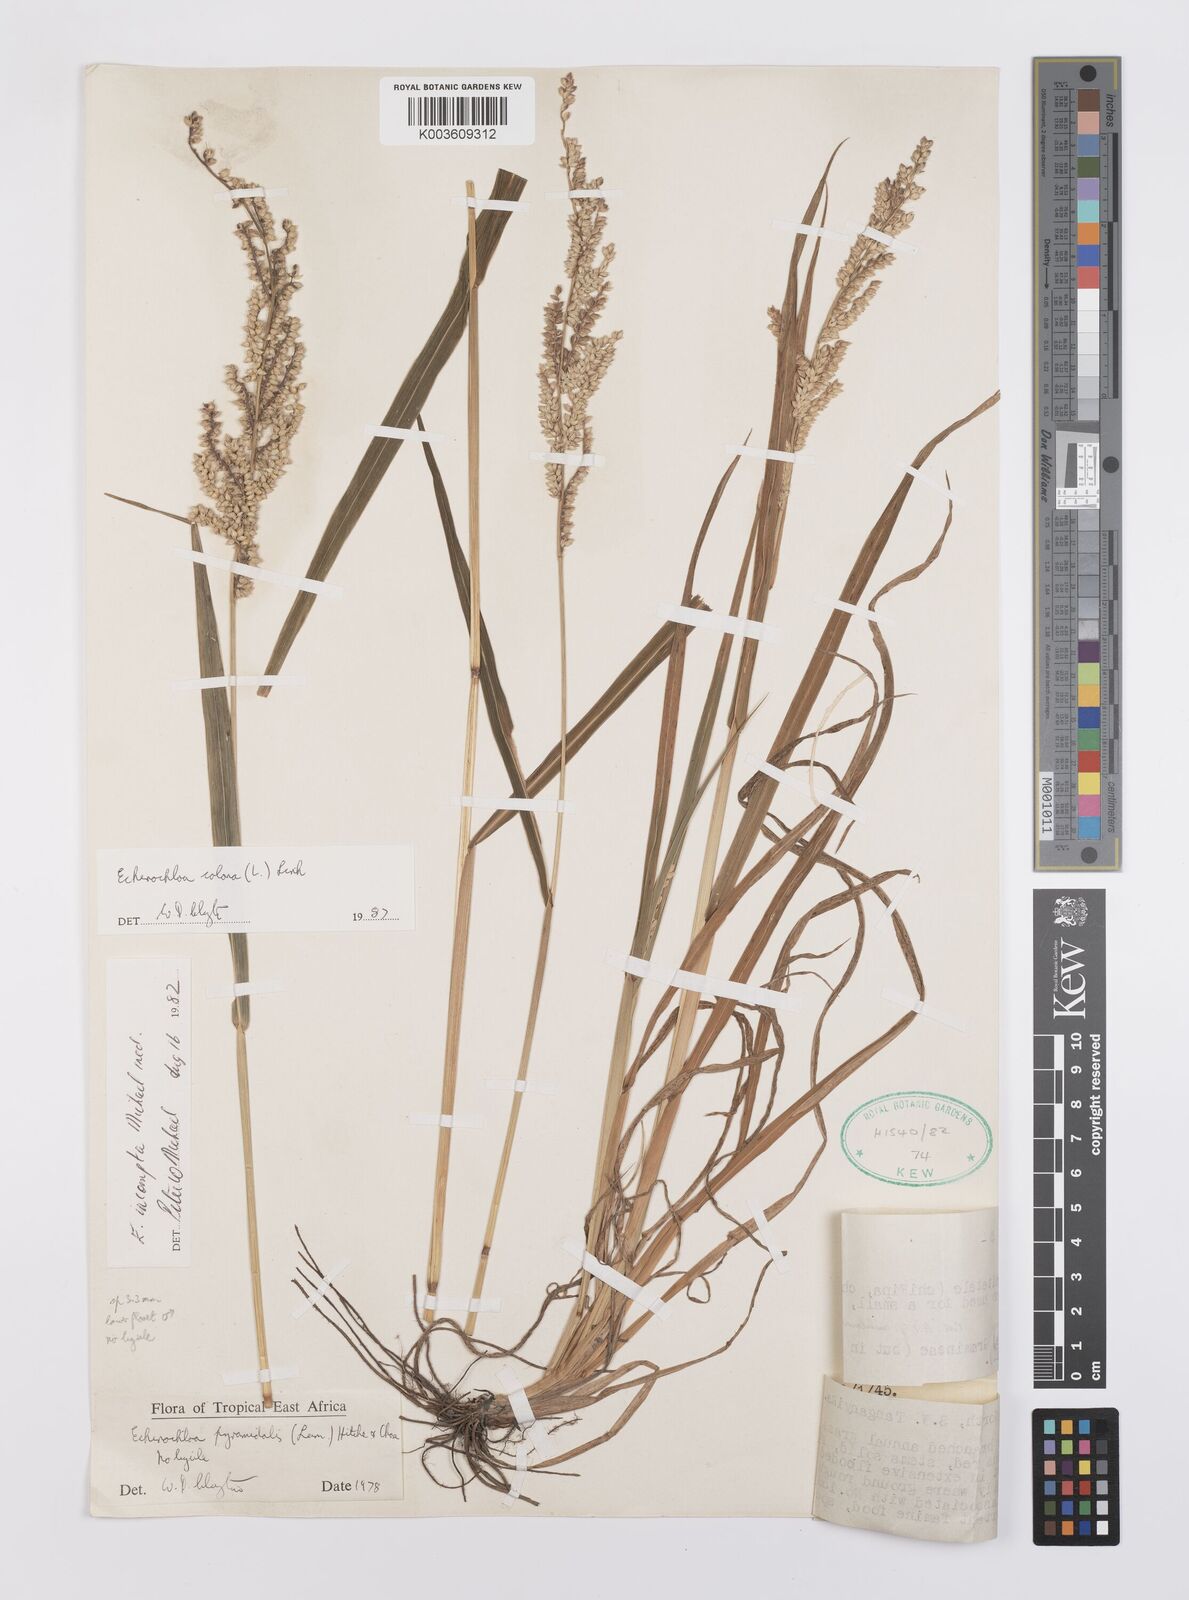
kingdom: Plantae
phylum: Tracheophyta
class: Liliopsida
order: Poales
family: Poaceae
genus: Echinochloa
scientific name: Echinochloa colonum
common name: Jungle rice
